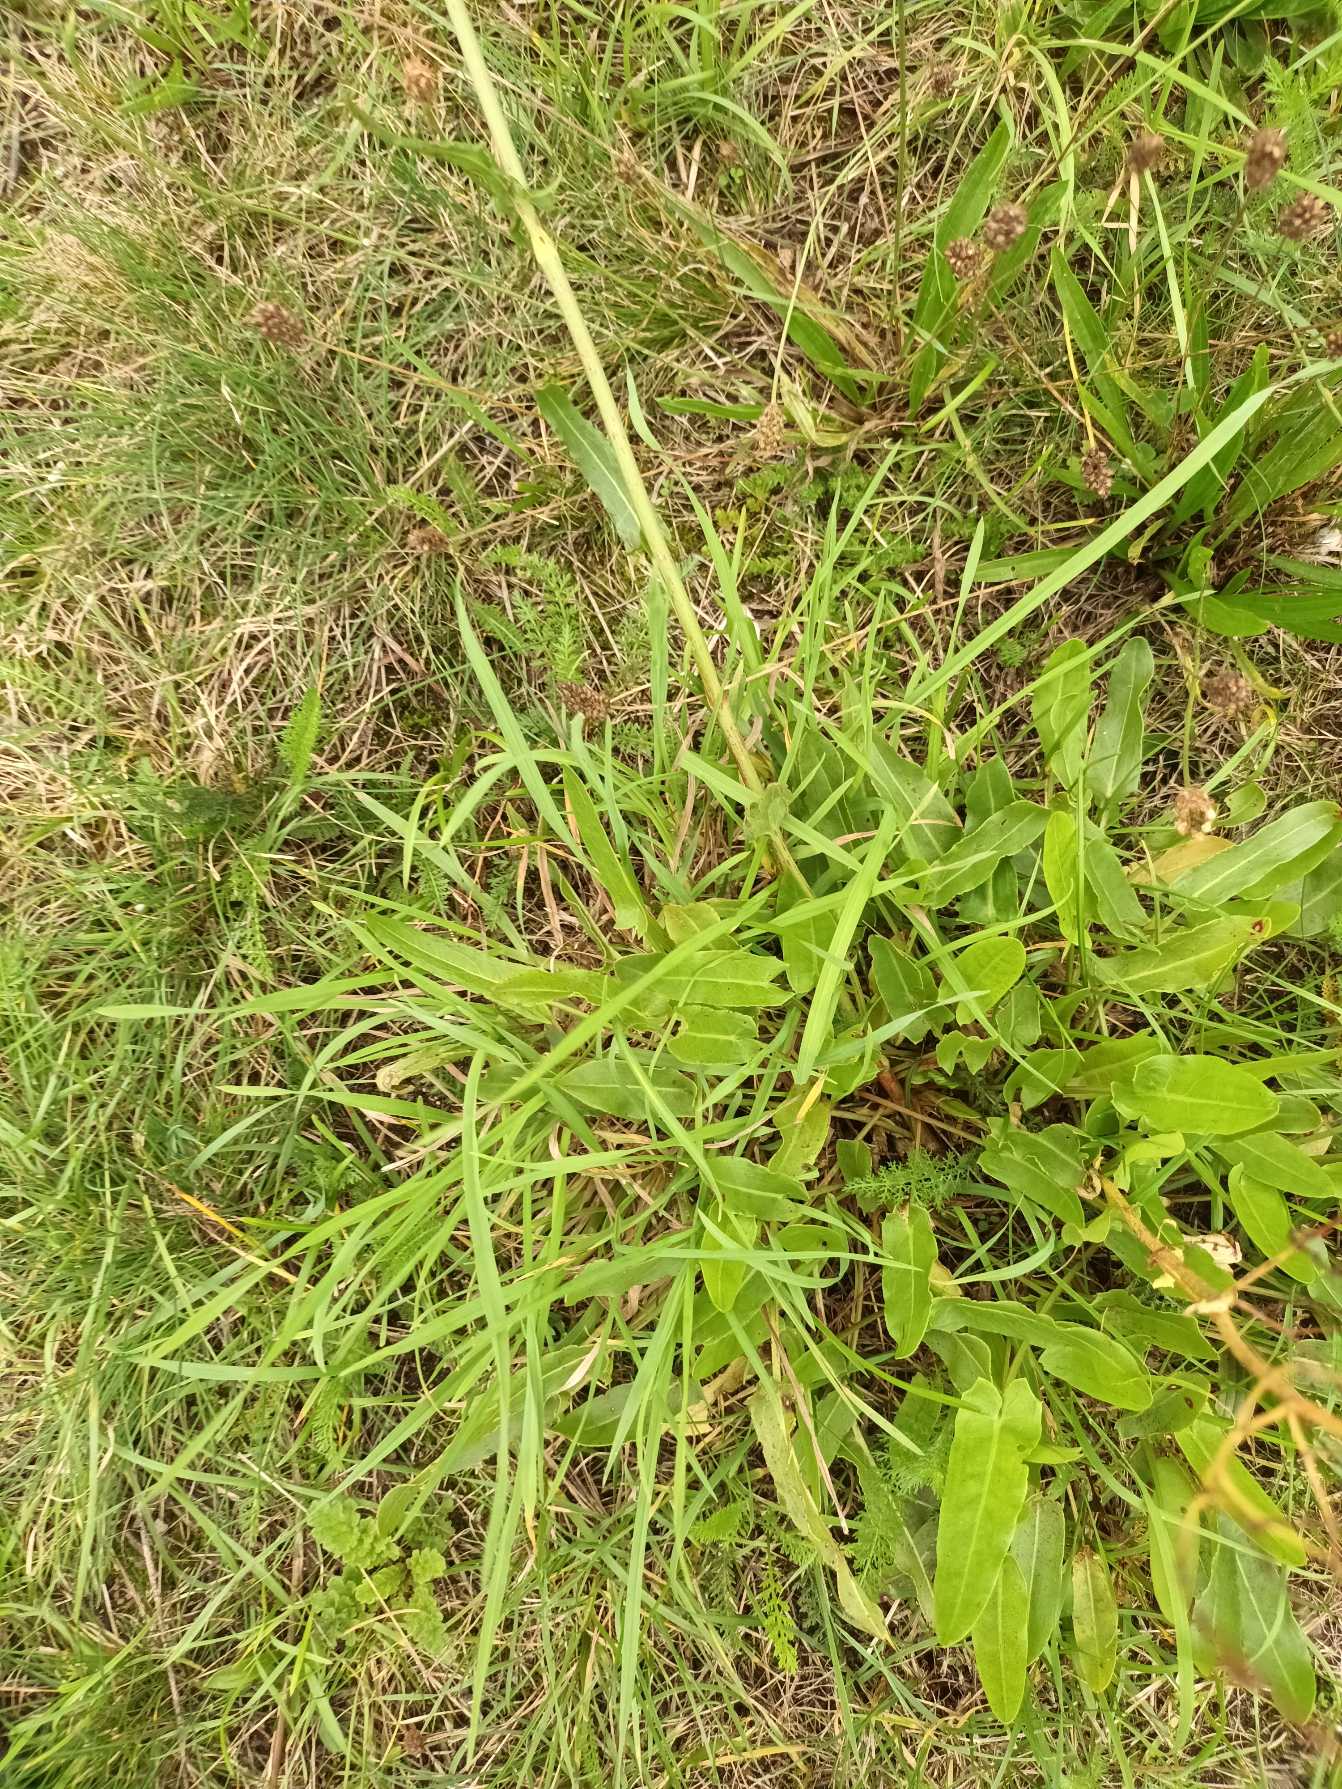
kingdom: Plantae
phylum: Tracheophyta
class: Magnoliopsida
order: Caryophyllales
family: Polygonaceae
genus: Rumex
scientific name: Rumex thyrsiflorus
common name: Dusk-syre
